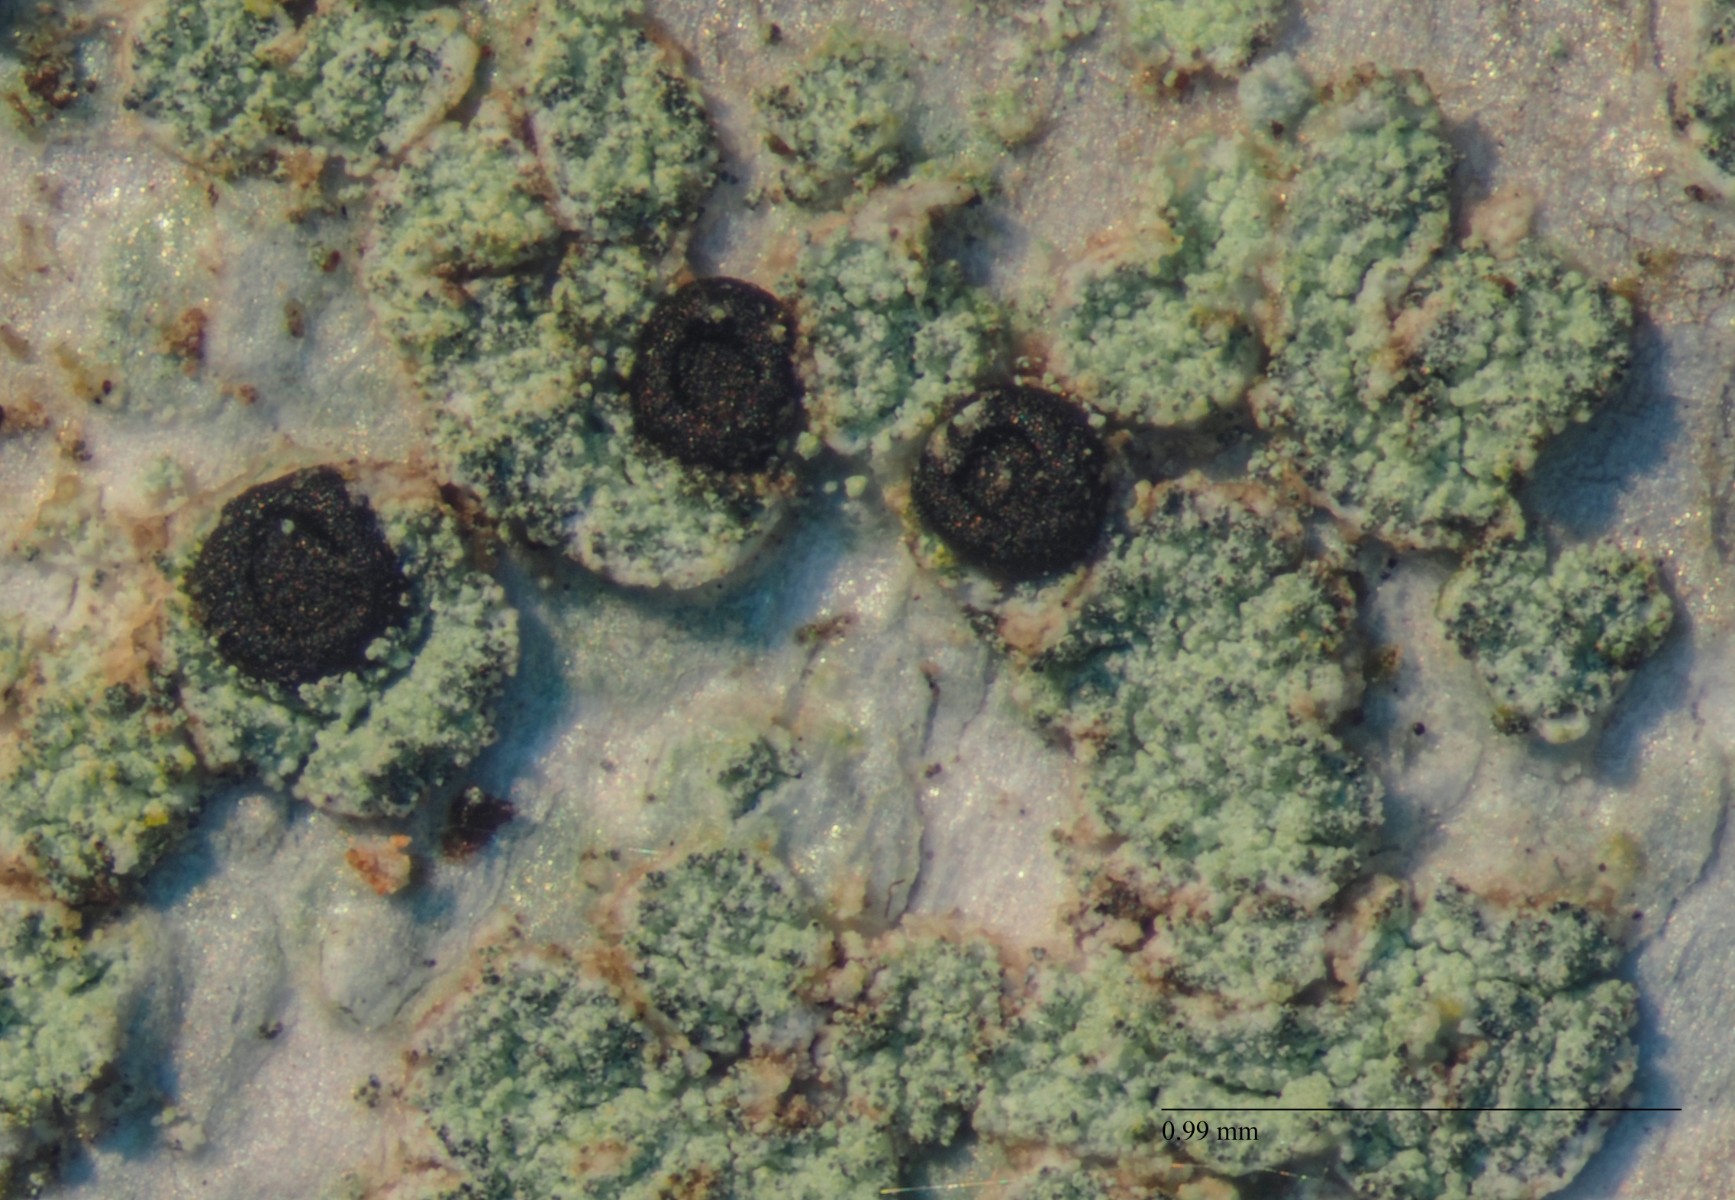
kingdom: Fungi
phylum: Ascomycota
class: Lecanoromycetes
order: Caliciales
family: Caliciaceae
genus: Buellia
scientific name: Buellia griseovirens
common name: grågrøn sortskivelav
